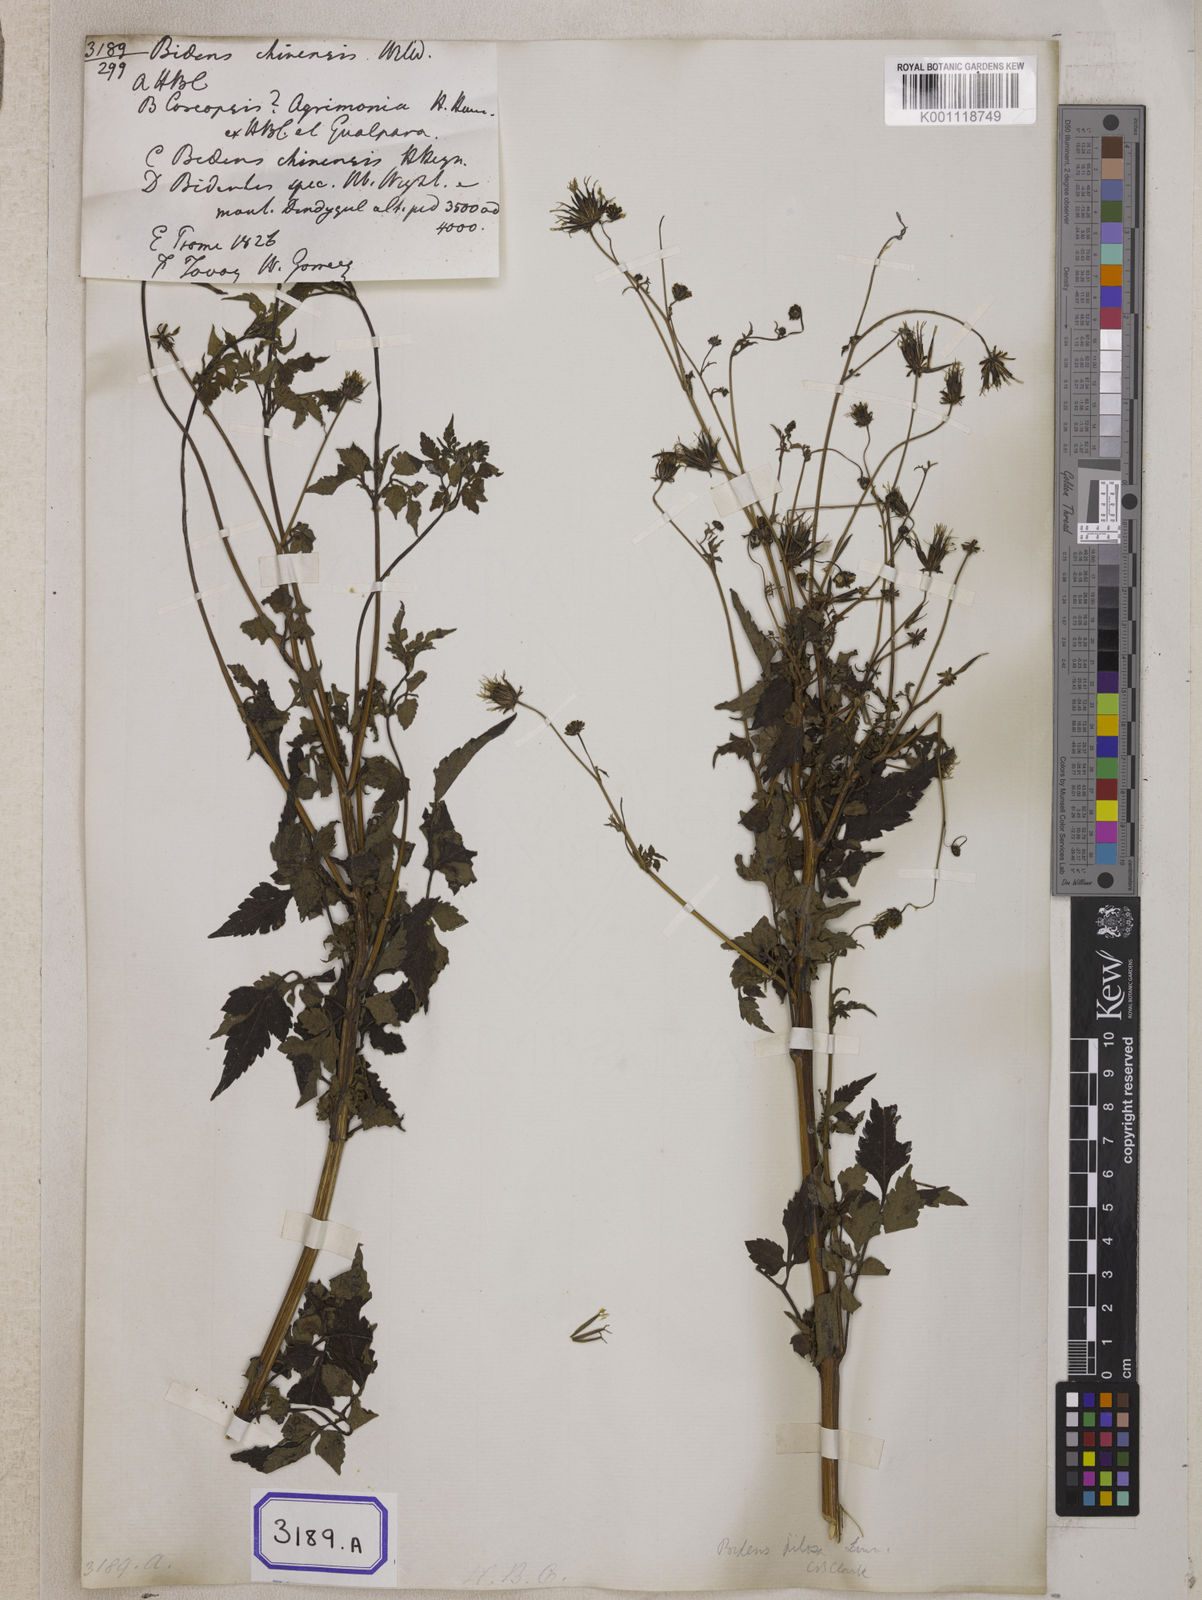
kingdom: Plantae
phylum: Tracheophyta
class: Magnoliopsida
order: Asterales
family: Asteraceae
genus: Bidens
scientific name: Bidens biternata
